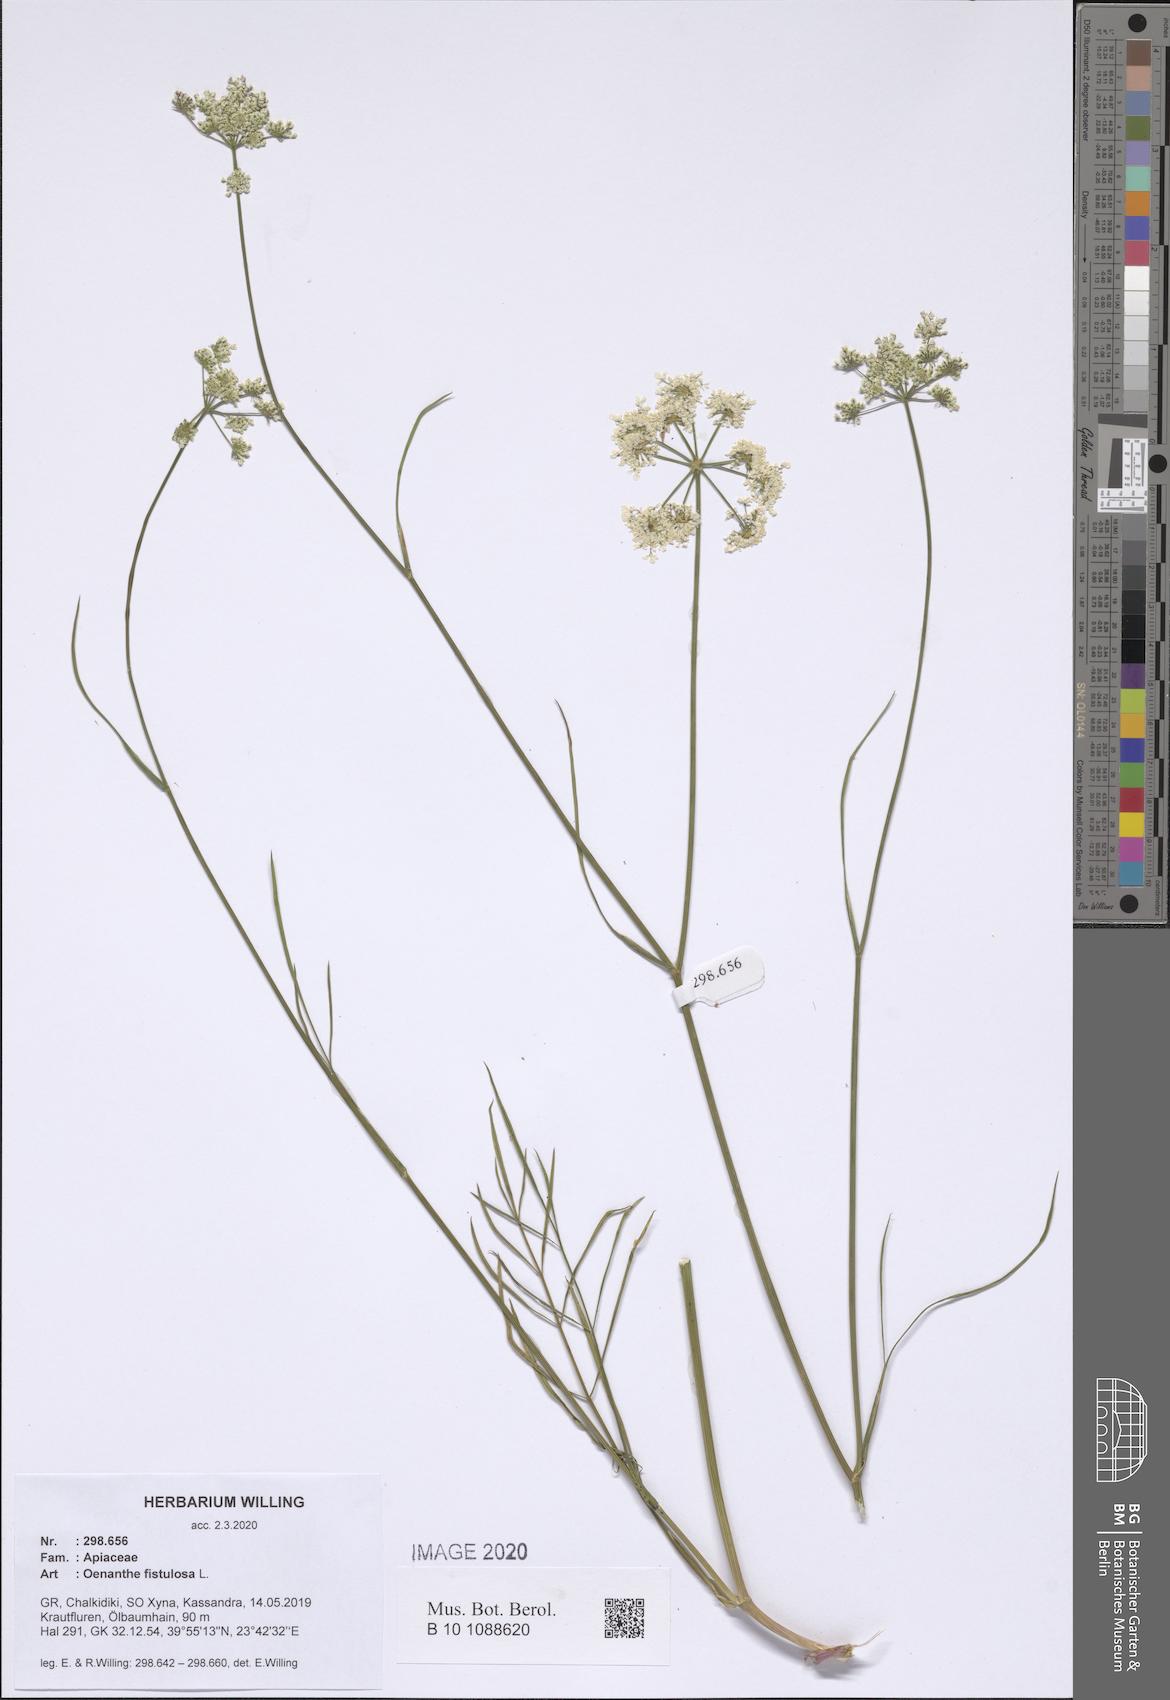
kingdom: Plantae
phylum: Tracheophyta
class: Magnoliopsida
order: Apiales
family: Apiaceae
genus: Oenanthe
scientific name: Oenanthe fistulosa
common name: Tubular water-dropwort
